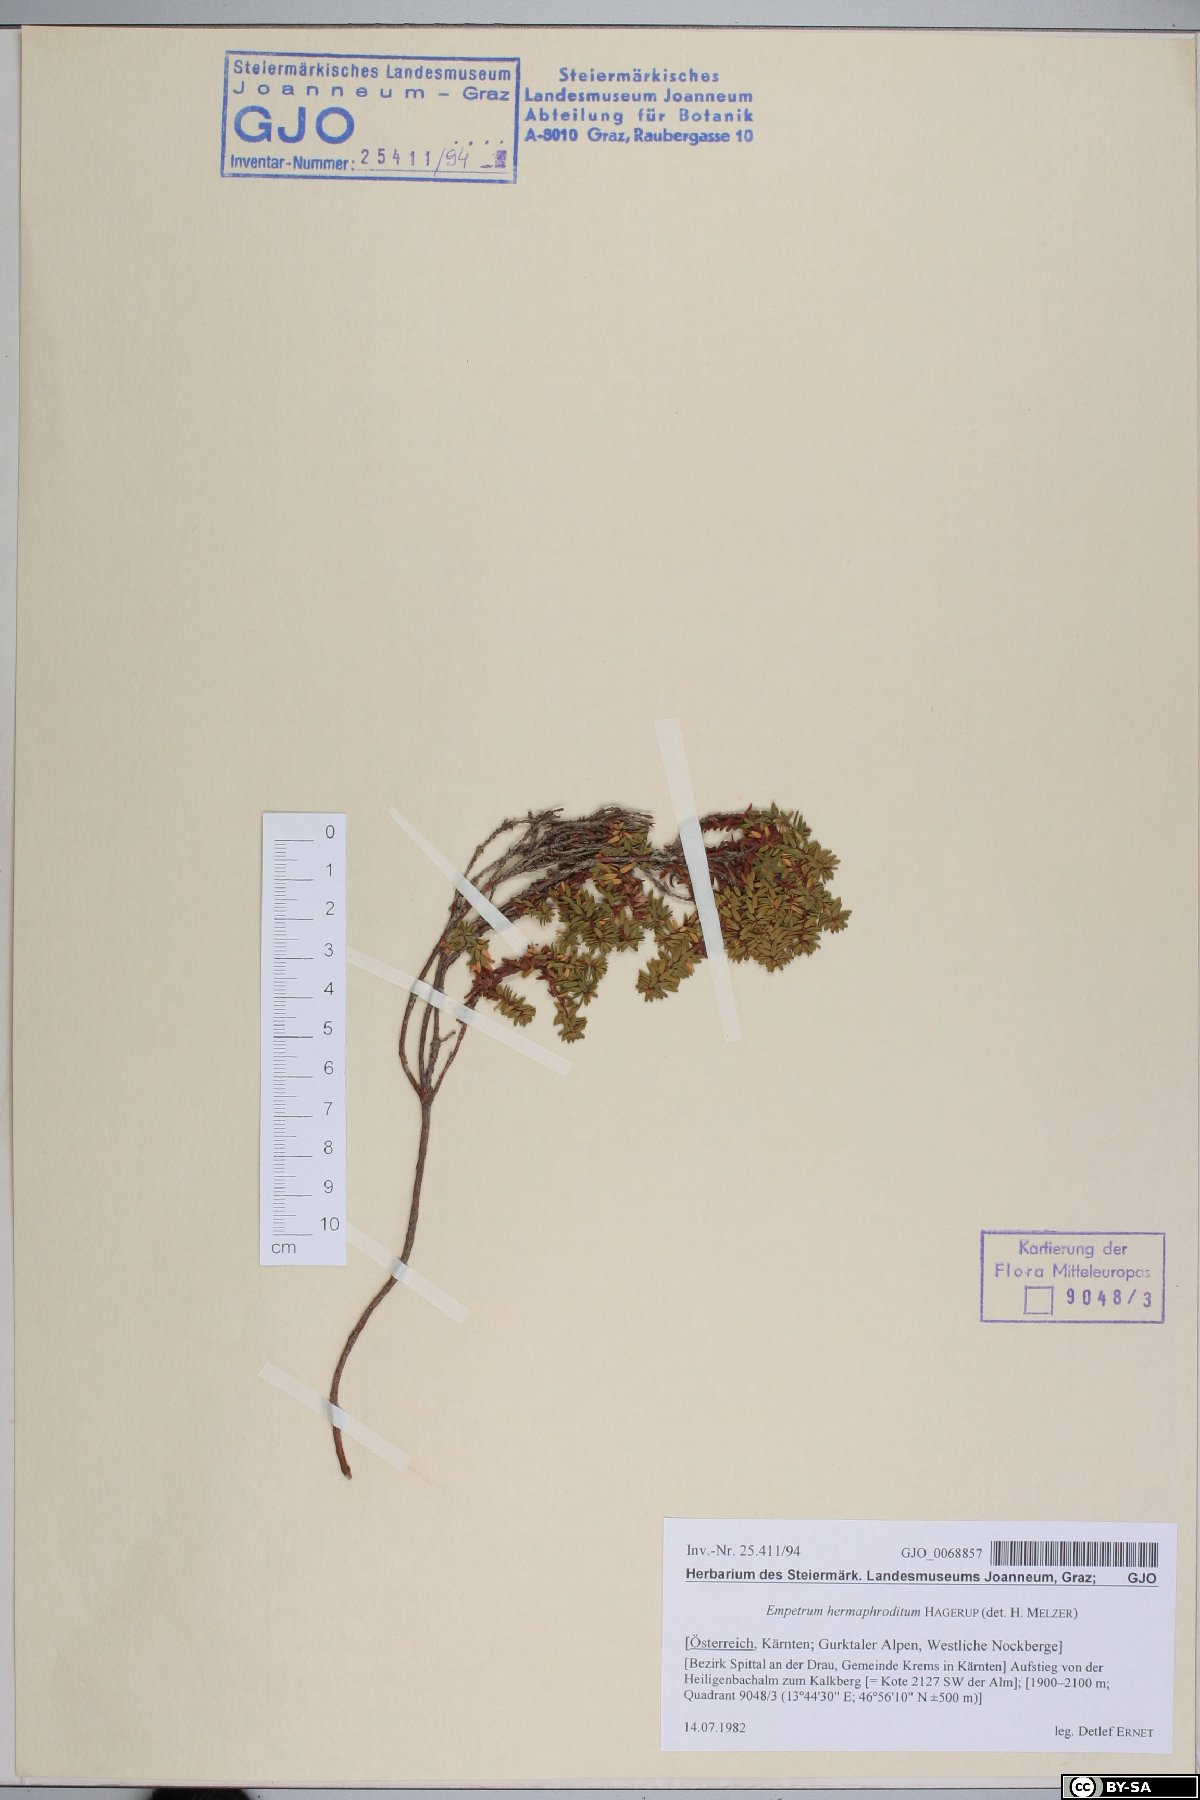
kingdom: Plantae
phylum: Tracheophyta
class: Magnoliopsida
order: Ericales
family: Ericaceae
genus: Empetrum
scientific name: Empetrum hermaphroditum
